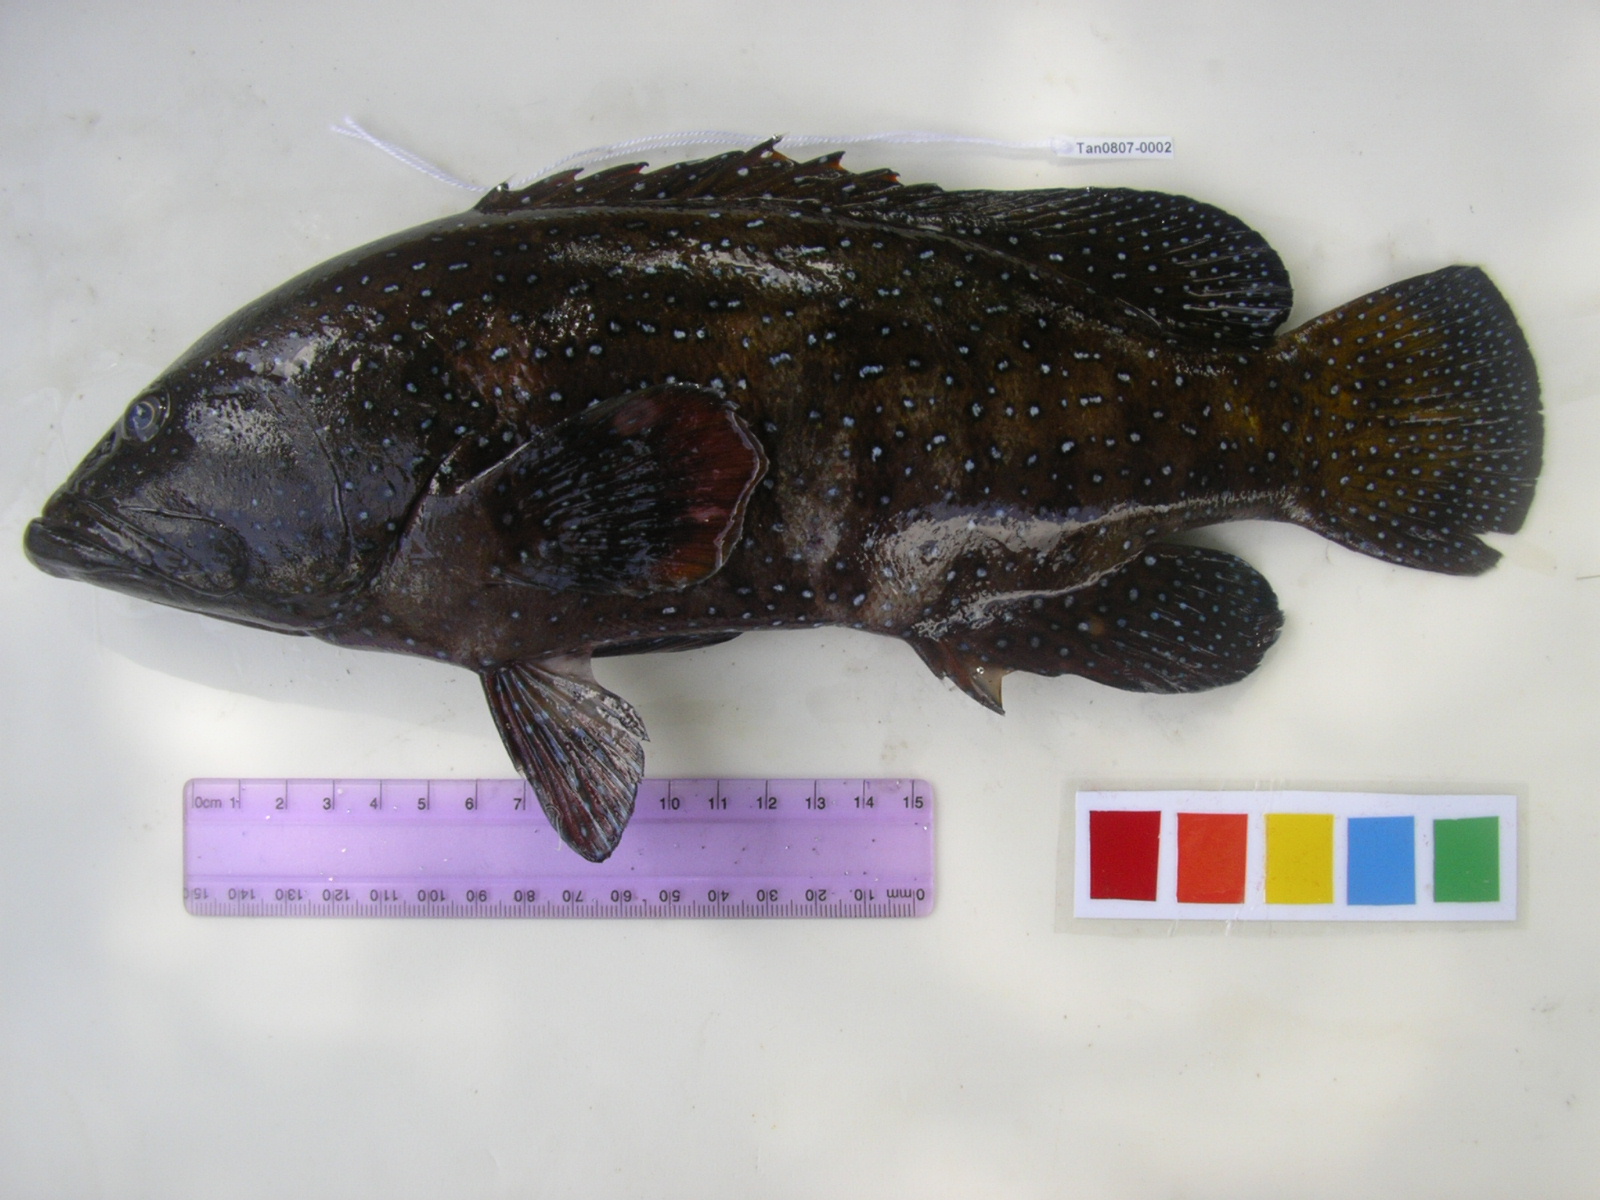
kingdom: Animalia
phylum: Chordata
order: Perciformes
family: Serranidae
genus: Cephalopholis
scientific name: Cephalopholis argus
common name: Peacock grouper
